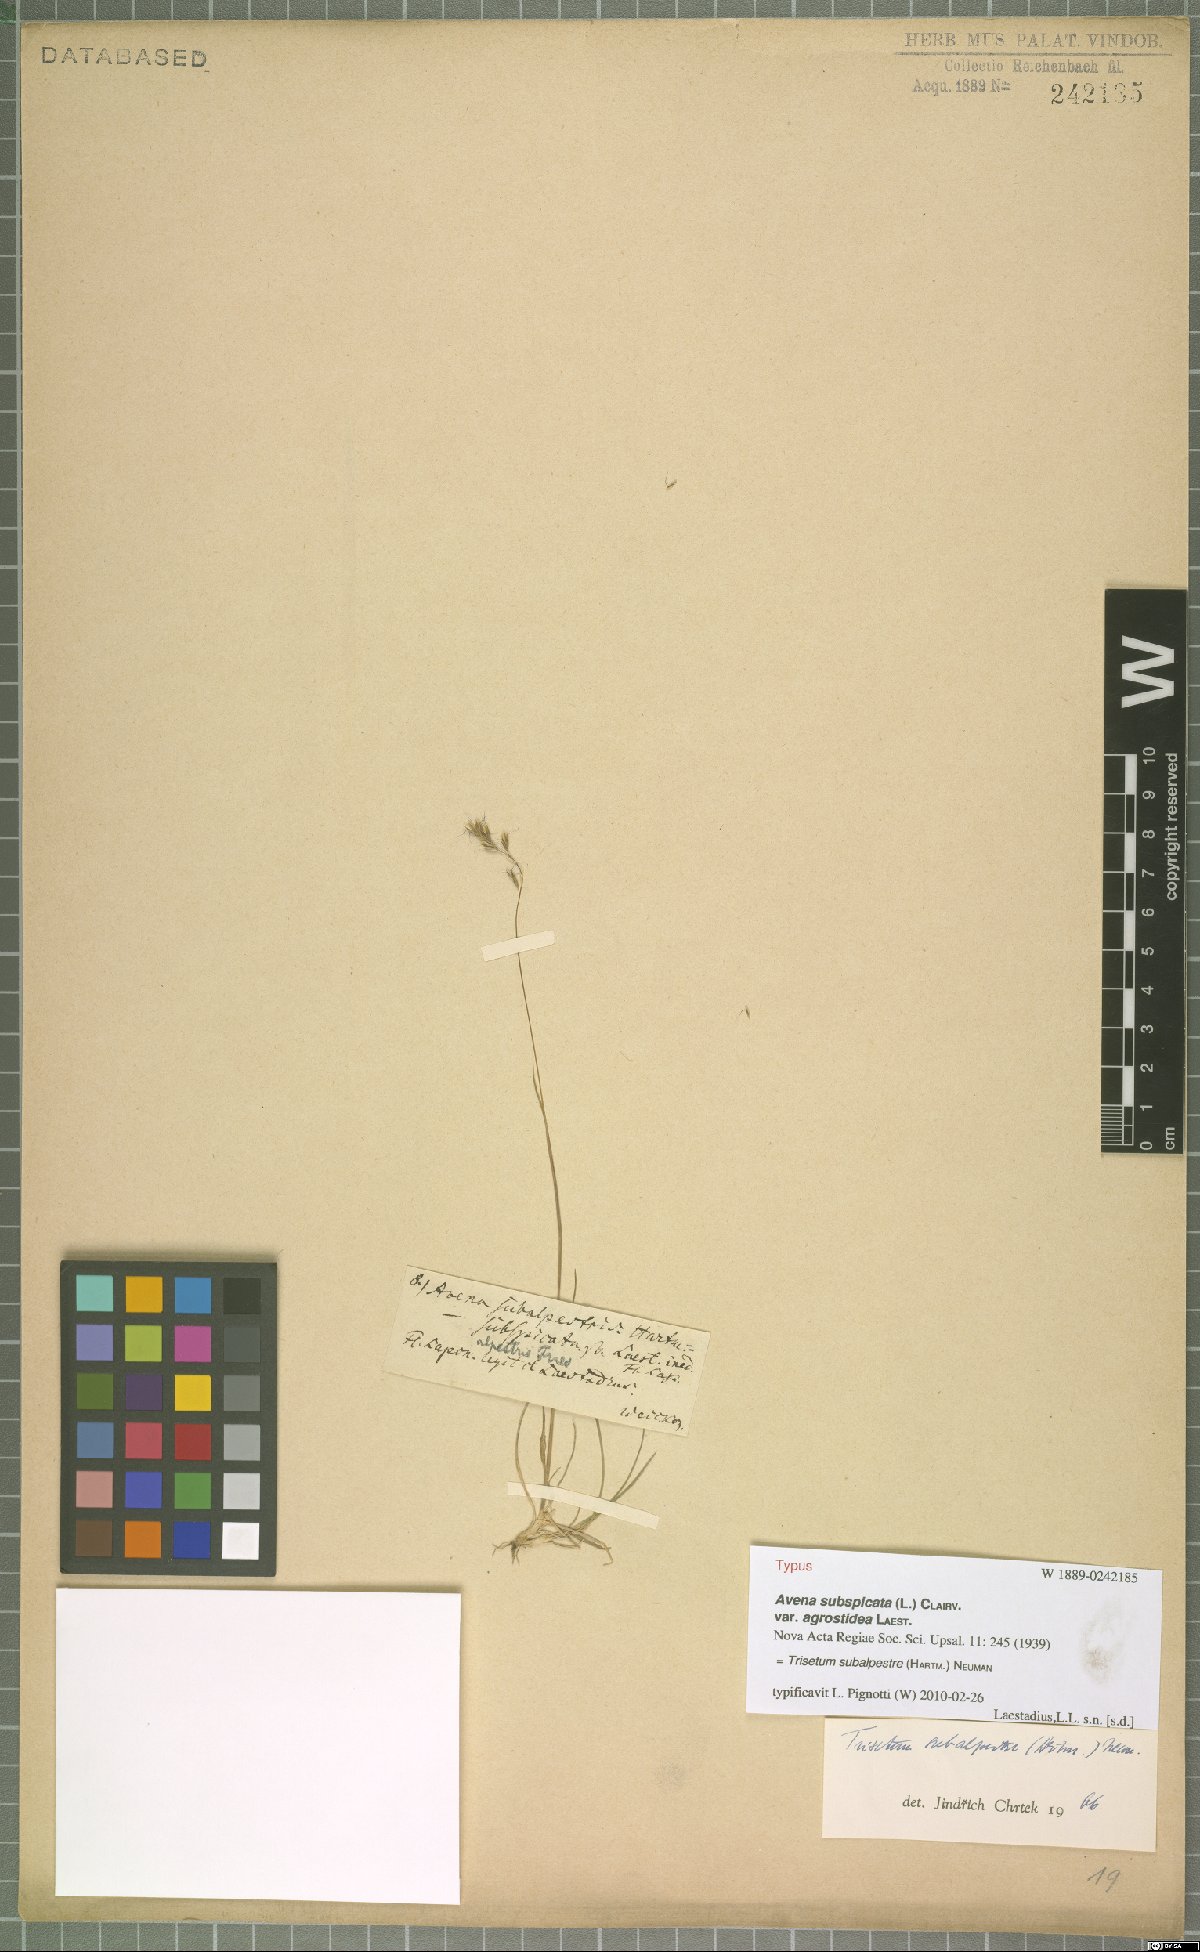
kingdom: Plantae
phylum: Tracheophyta
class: Liliopsida
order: Poales
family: Poaceae
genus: Koeleria
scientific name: Koeleria subalpestris
